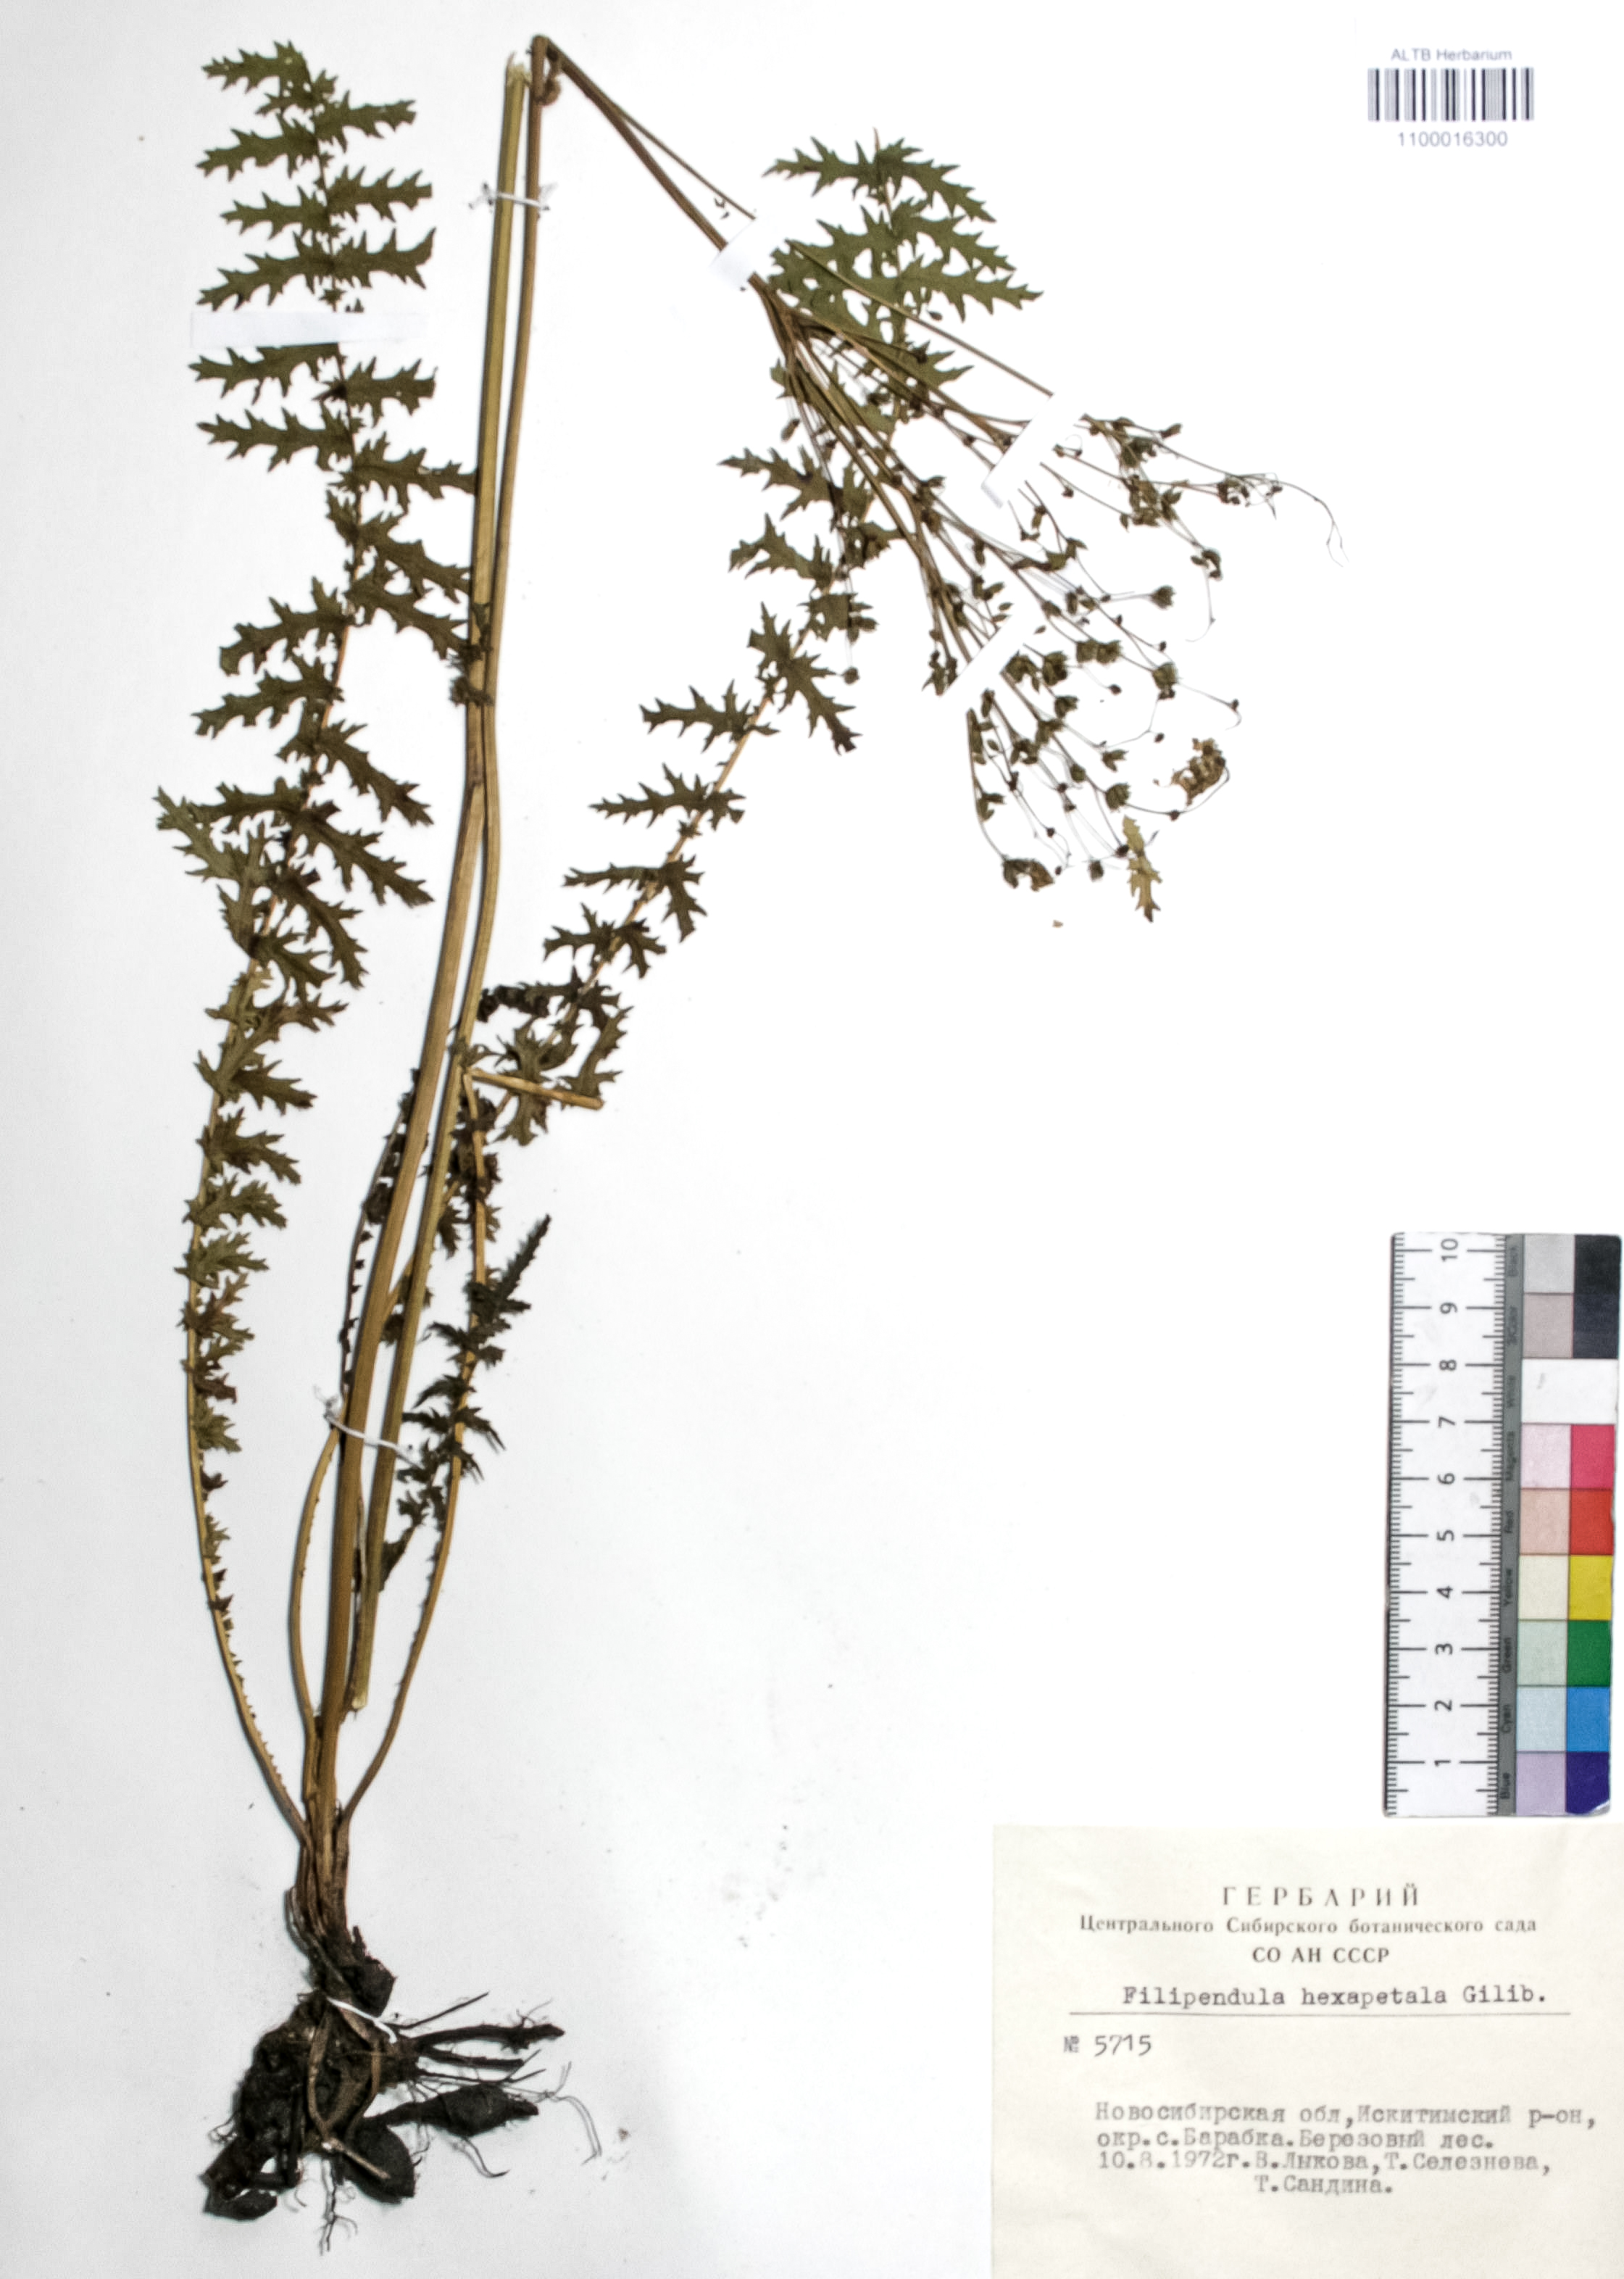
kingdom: Plantae
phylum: Tracheophyta
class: Magnoliopsida
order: Rosales
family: Rosaceae
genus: Filipendula
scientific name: Filipendula vulgaris
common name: Dropwort
